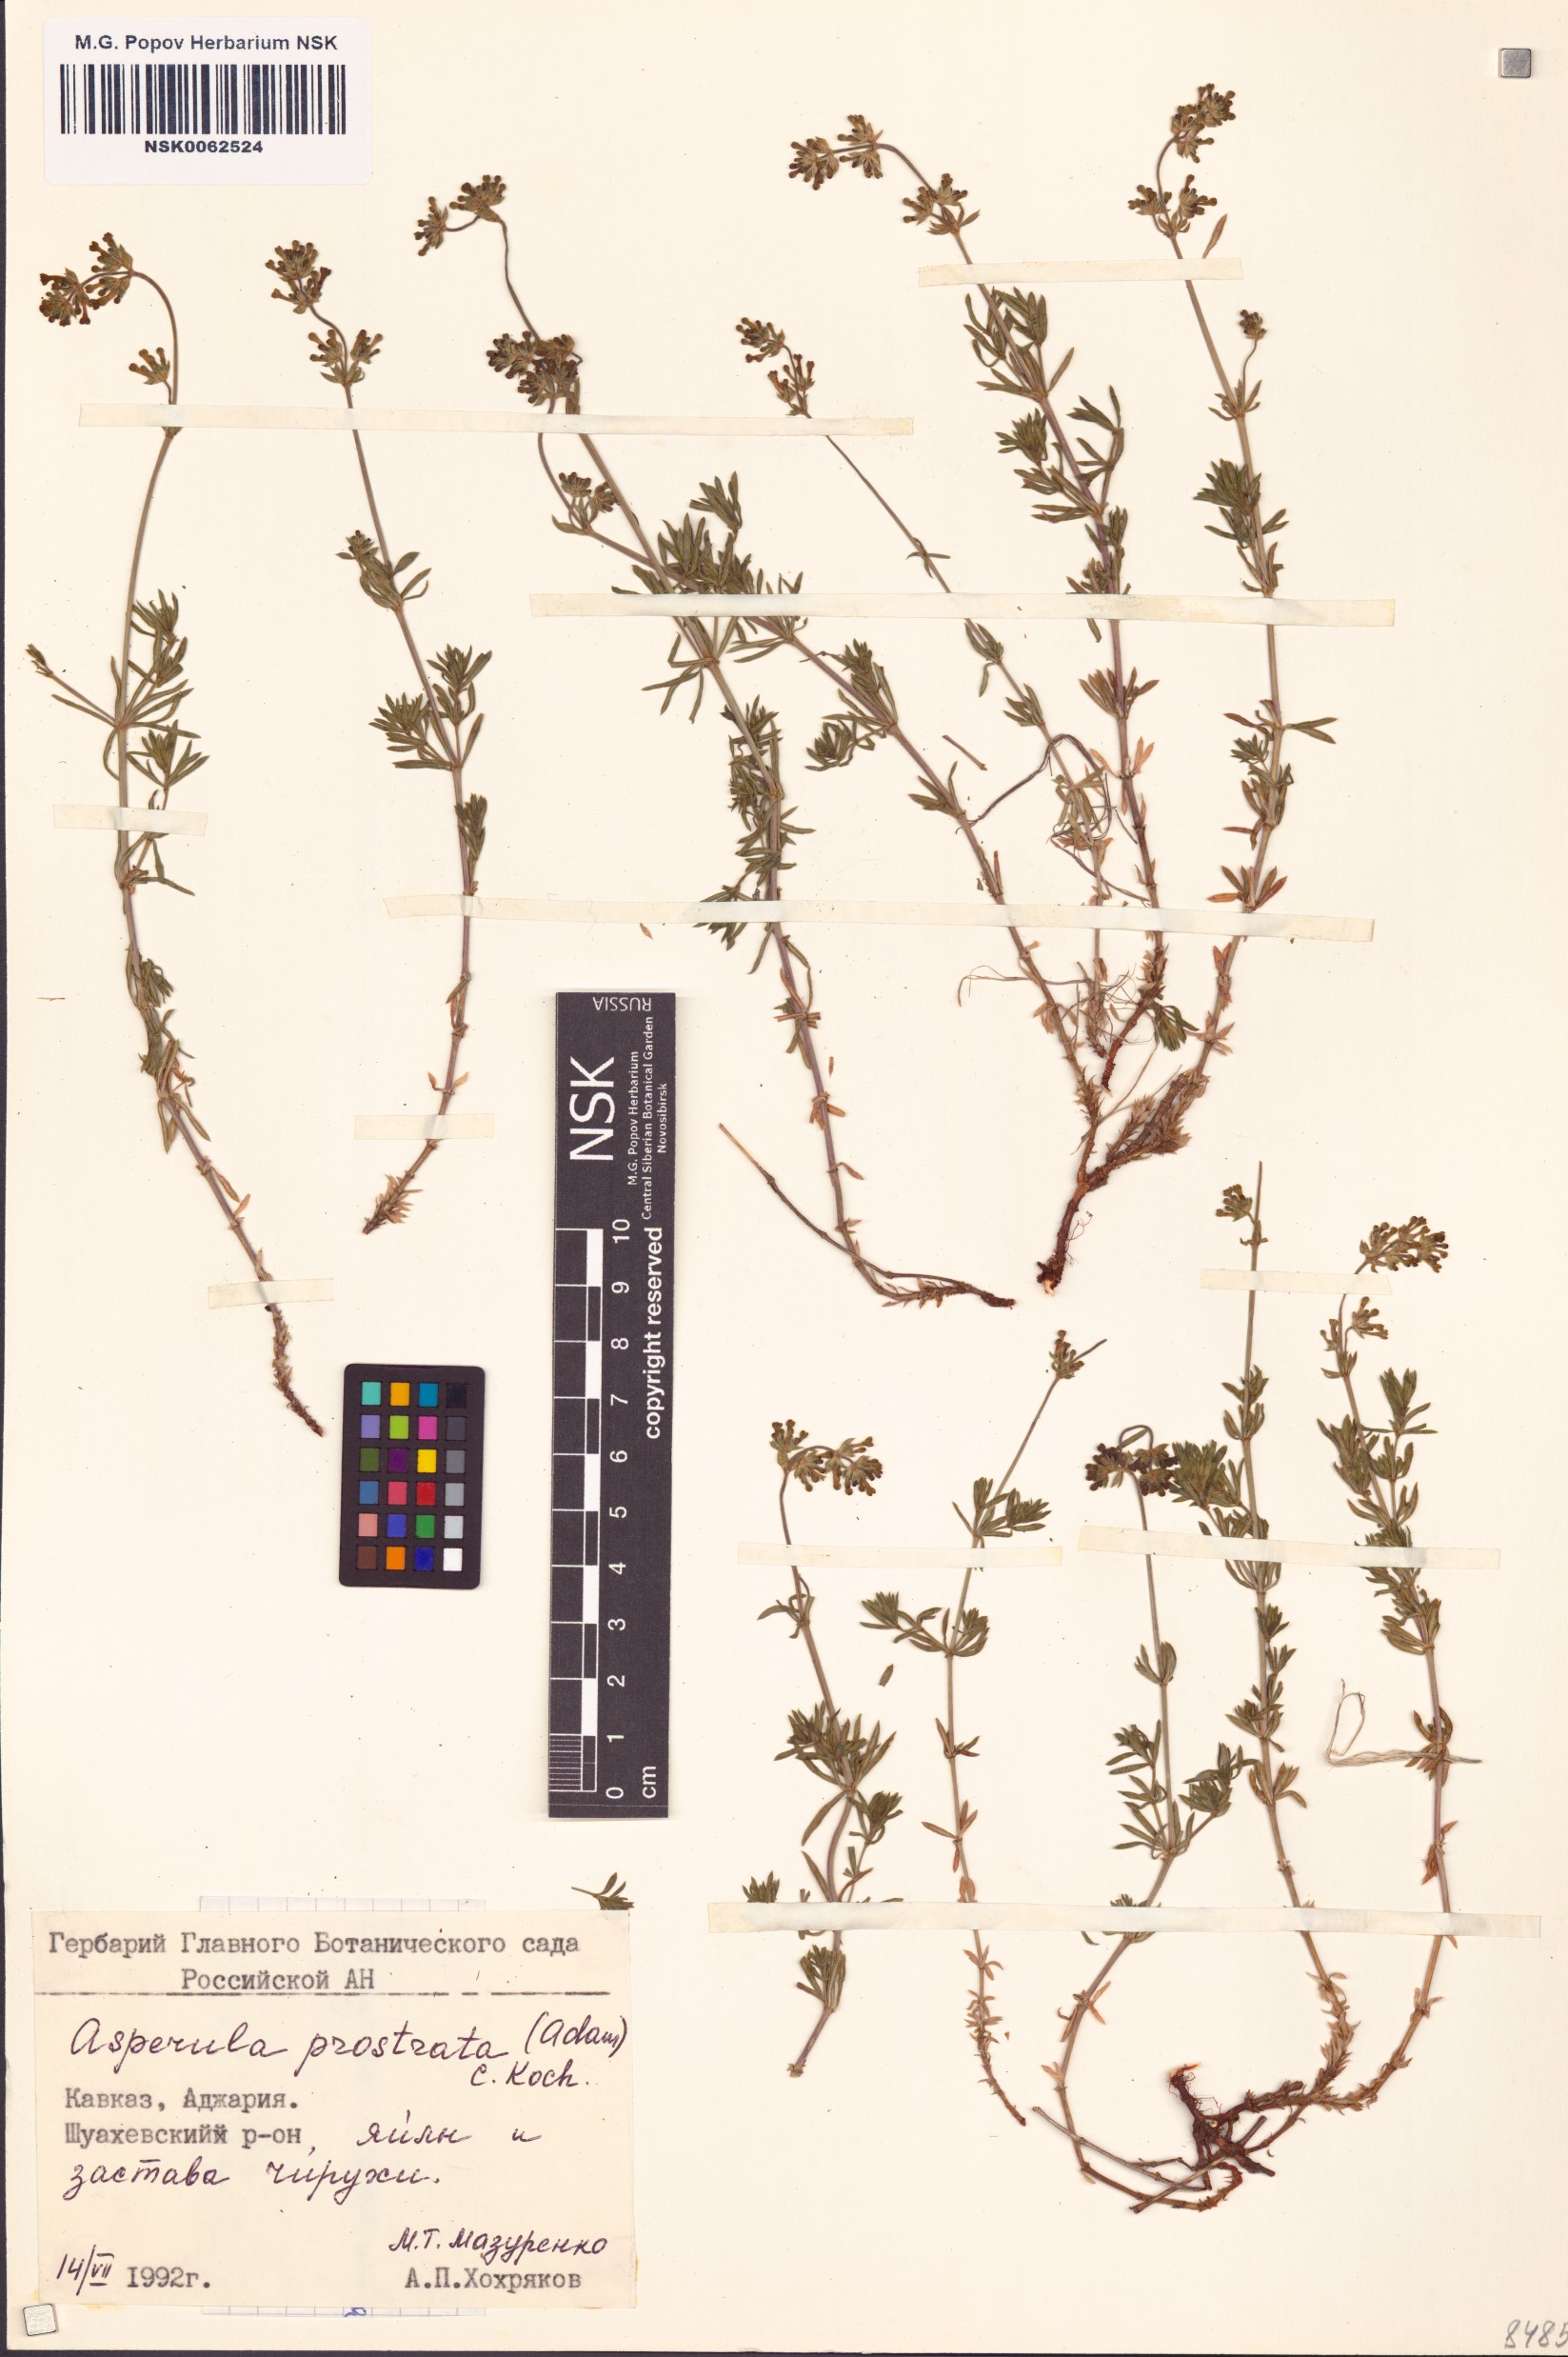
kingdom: Plantae
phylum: Tracheophyta
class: Magnoliopsida
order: Gentianales
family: Rubiaceae
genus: Asperula
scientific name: Asperula prostrata
